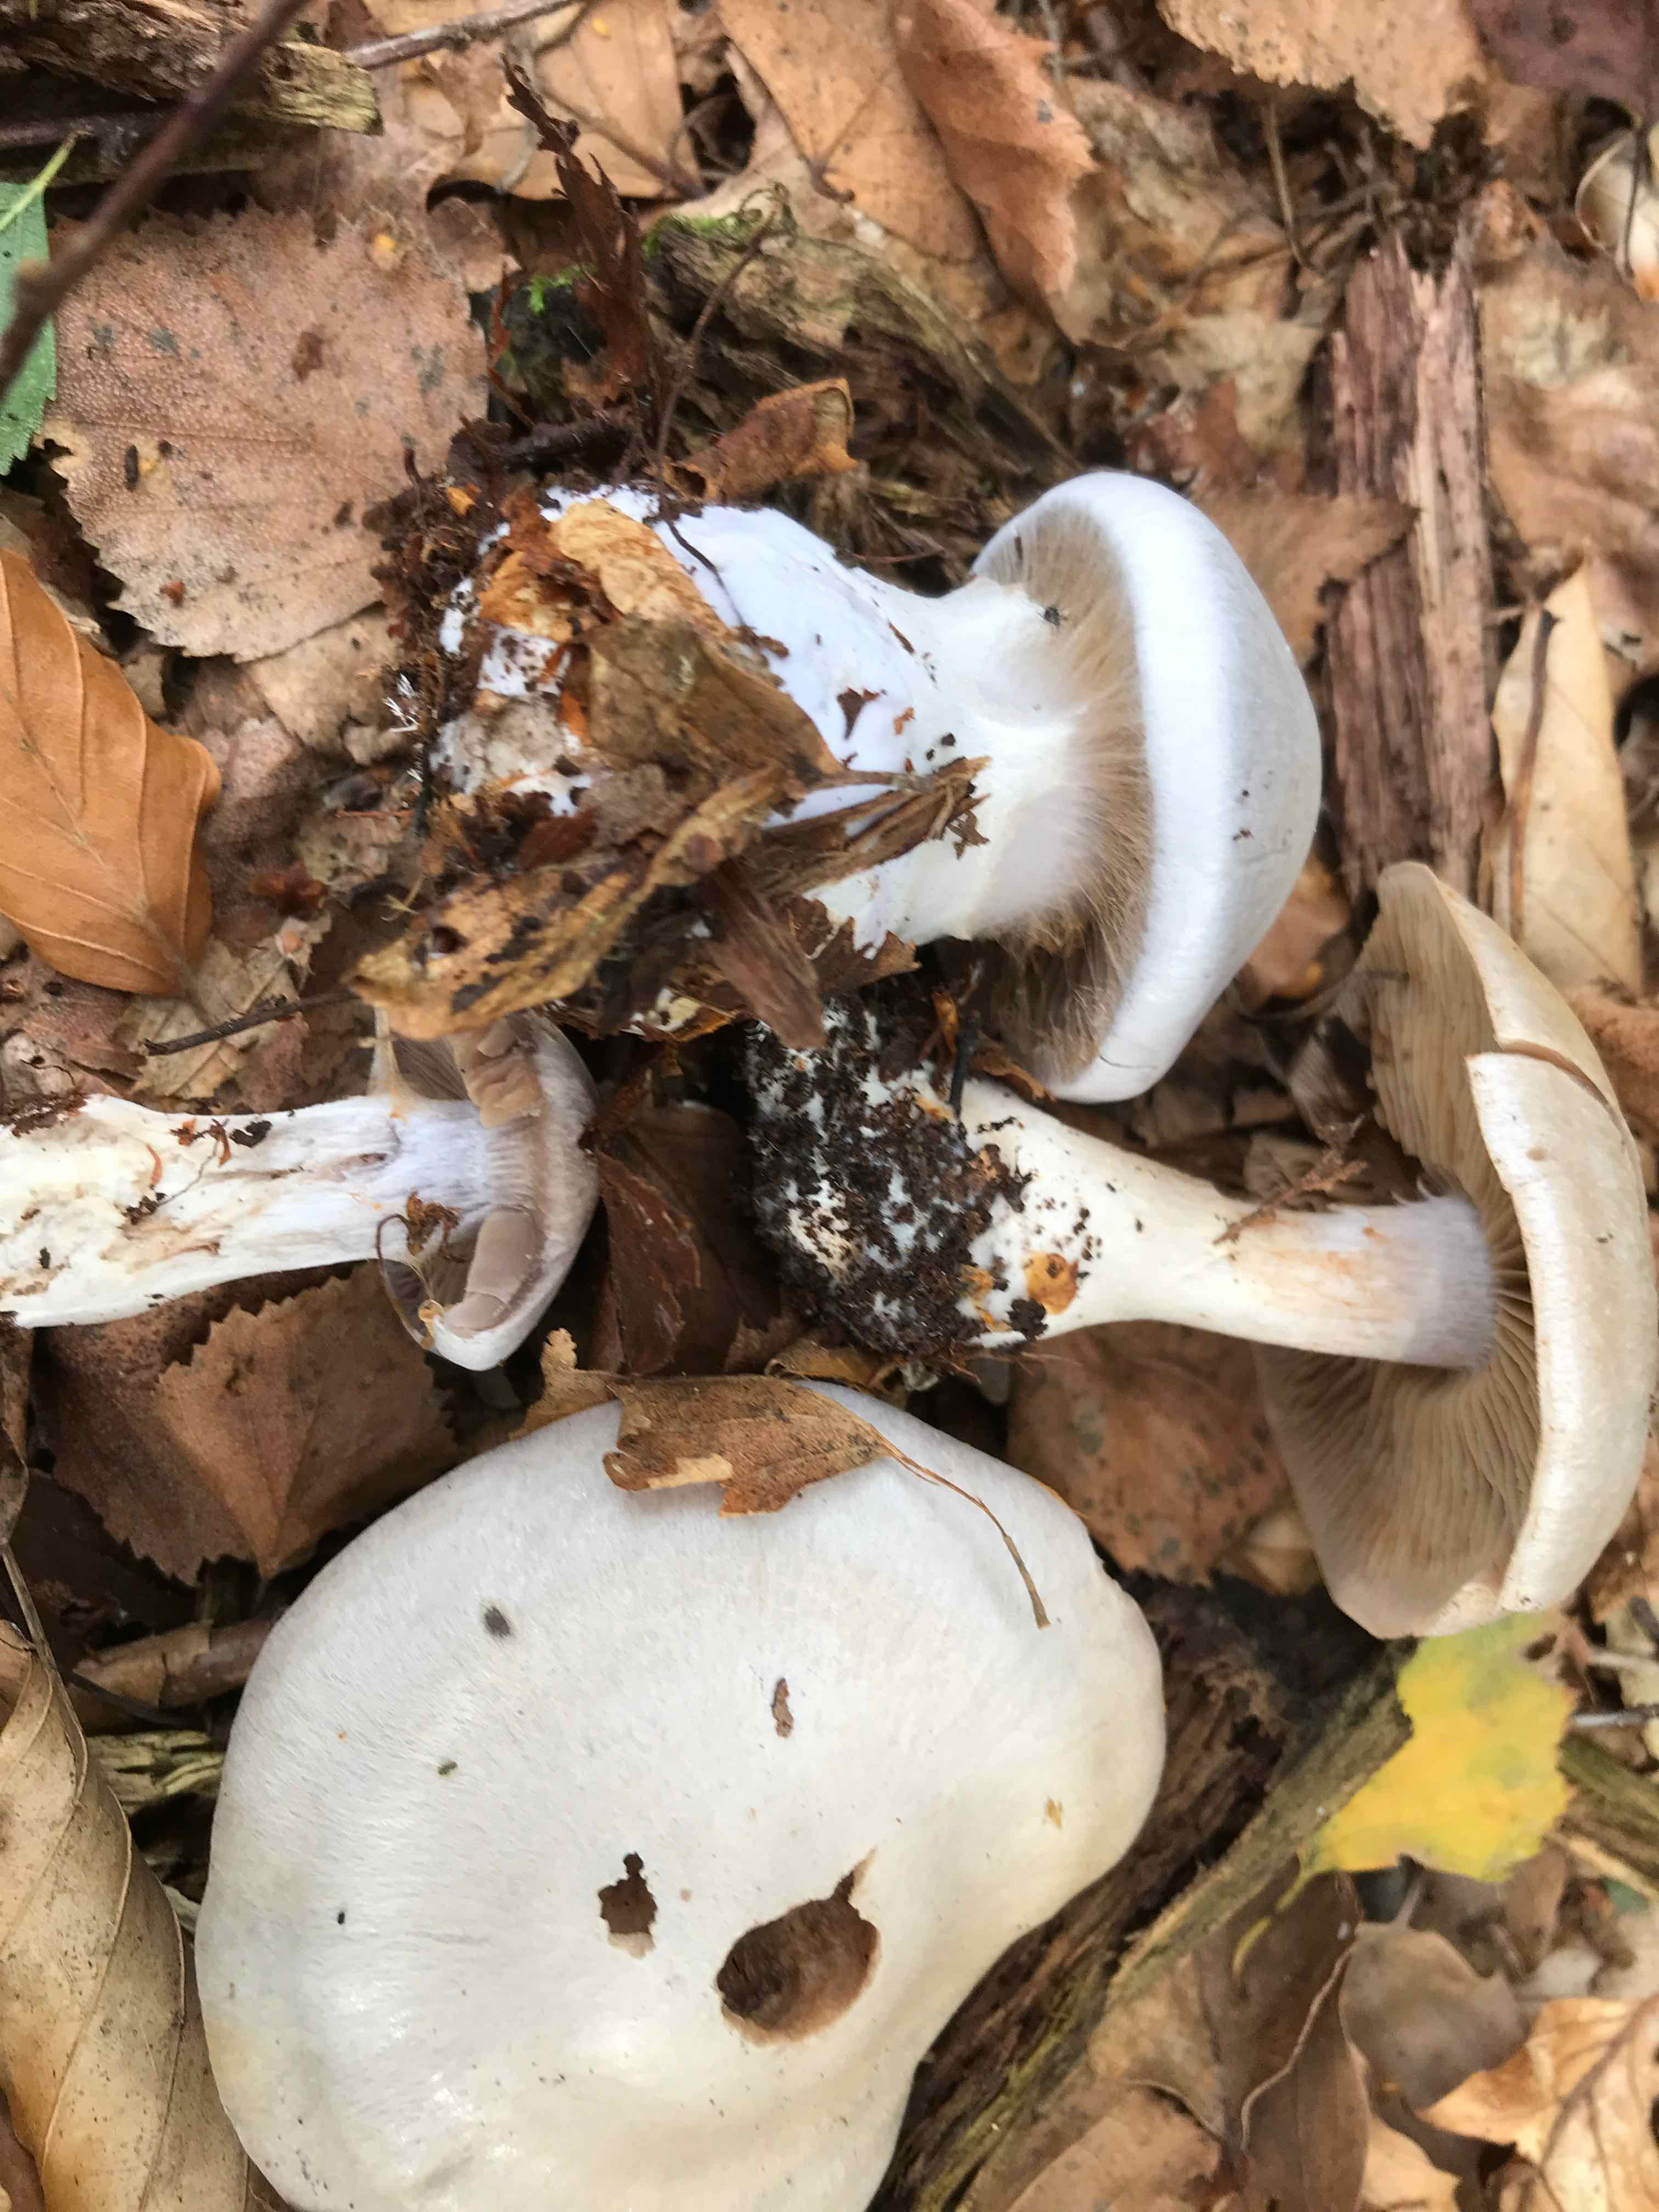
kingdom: Fungi
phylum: Basidiomycota
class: Agaricomycetes
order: Agaricales
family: Cortinariaceae
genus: Cortinarius
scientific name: Cortinarius alboviolaceus
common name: lysviolet slørhat
